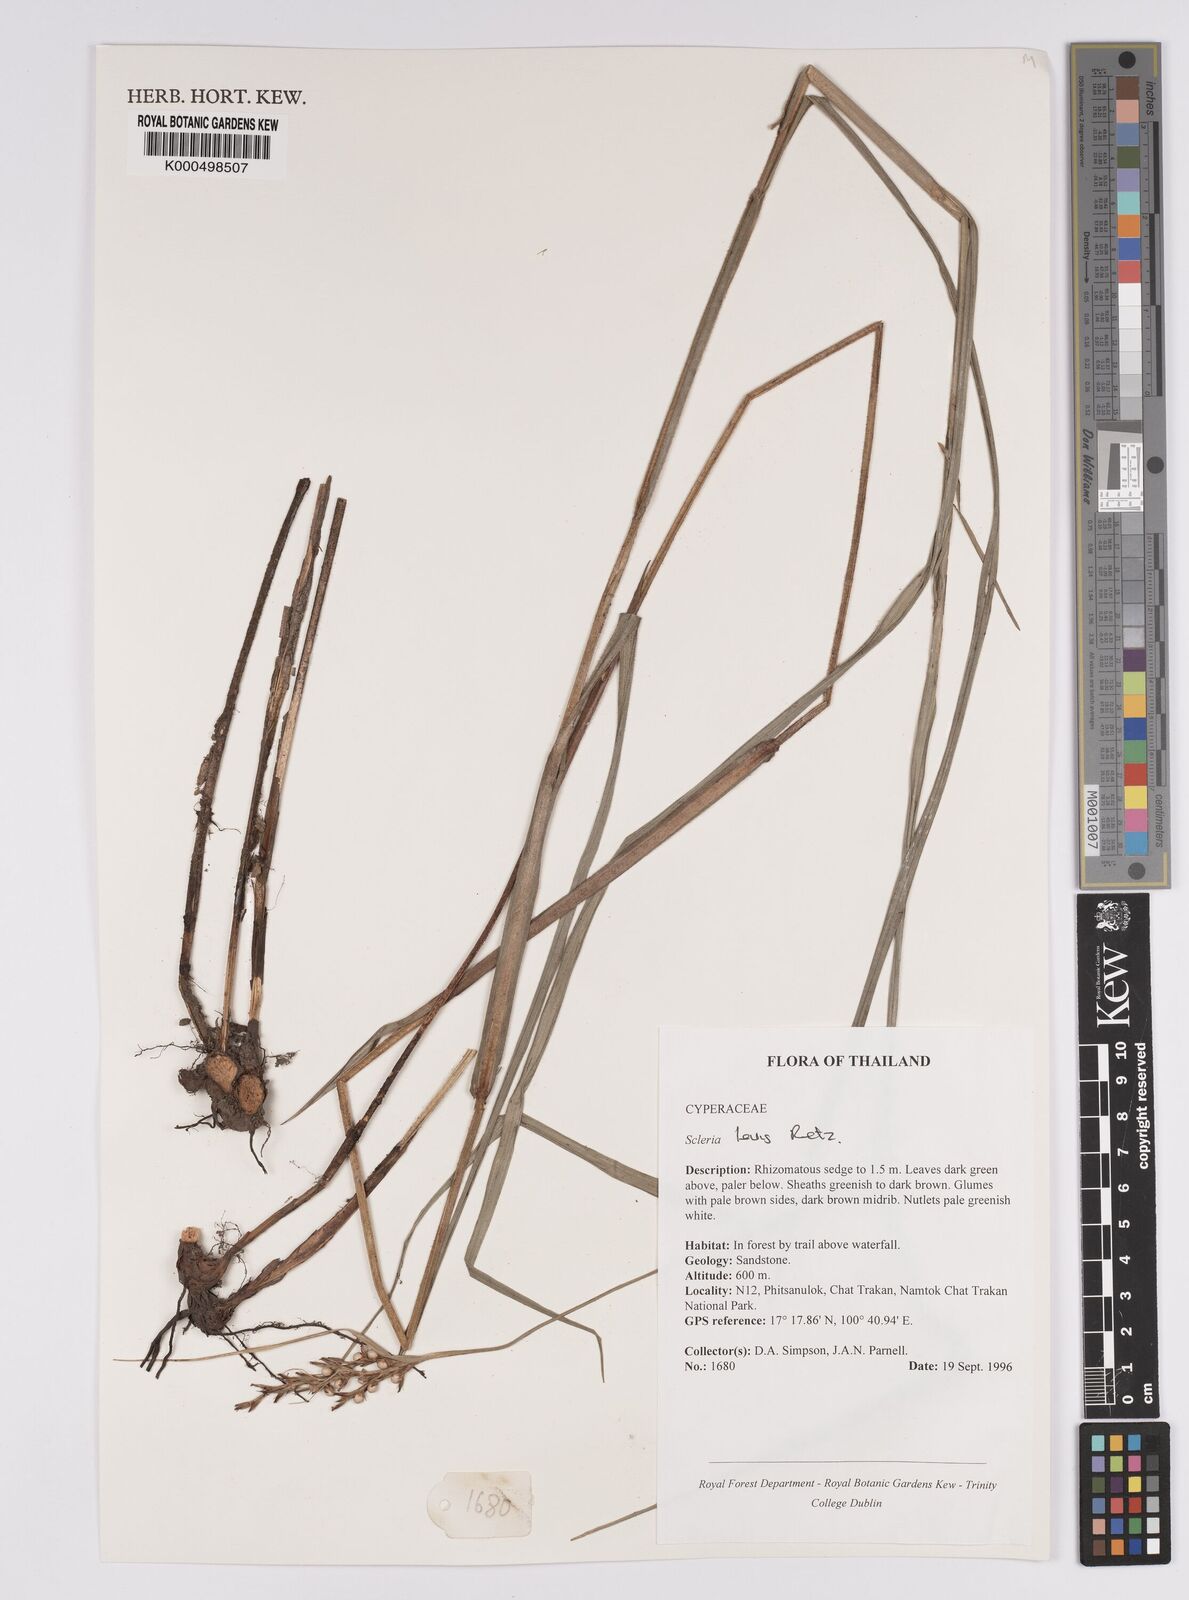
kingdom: Plantae
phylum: Tracheophyta
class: Liliopsida
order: Poales
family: Cyperaceae
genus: Scleria
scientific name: Scleria levis
